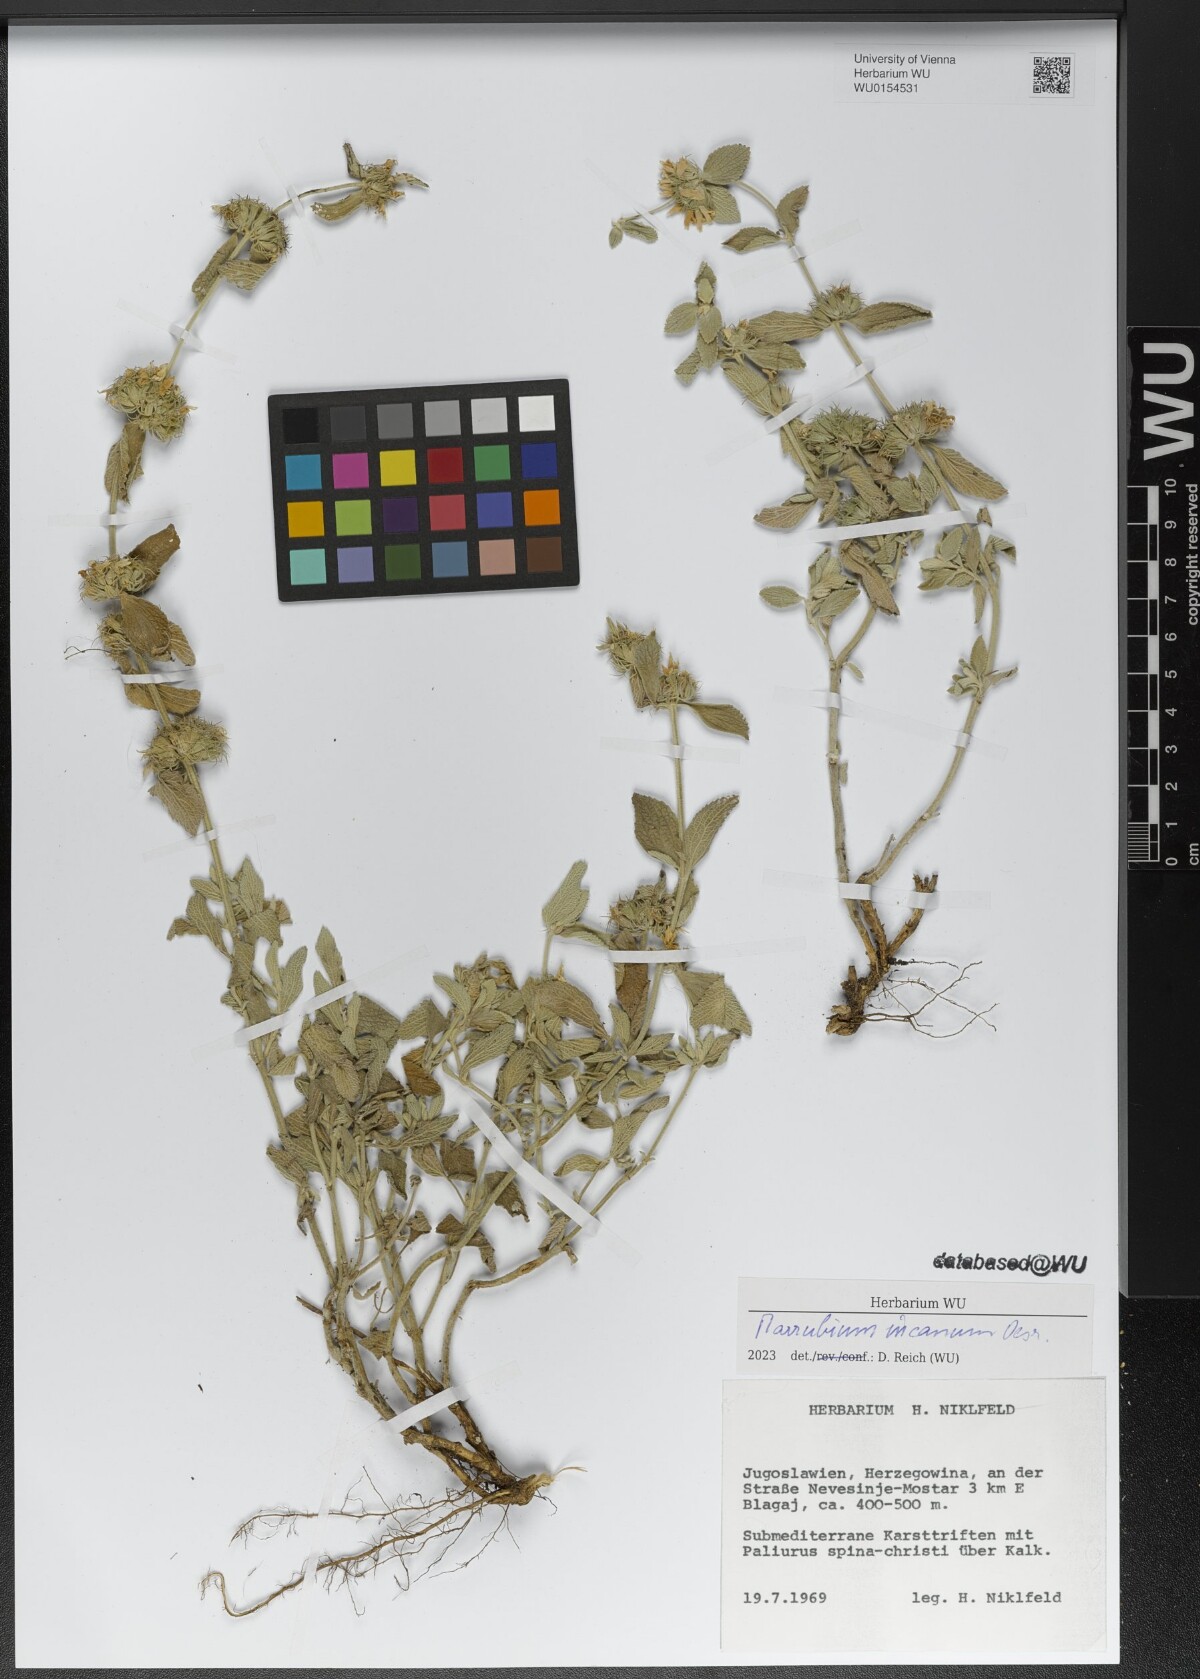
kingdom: Plantae
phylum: Tracheophyta
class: Magnoliopsida
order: Lamiales
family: Lamiaceae
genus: Marrubium
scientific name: Marrubium incanum
